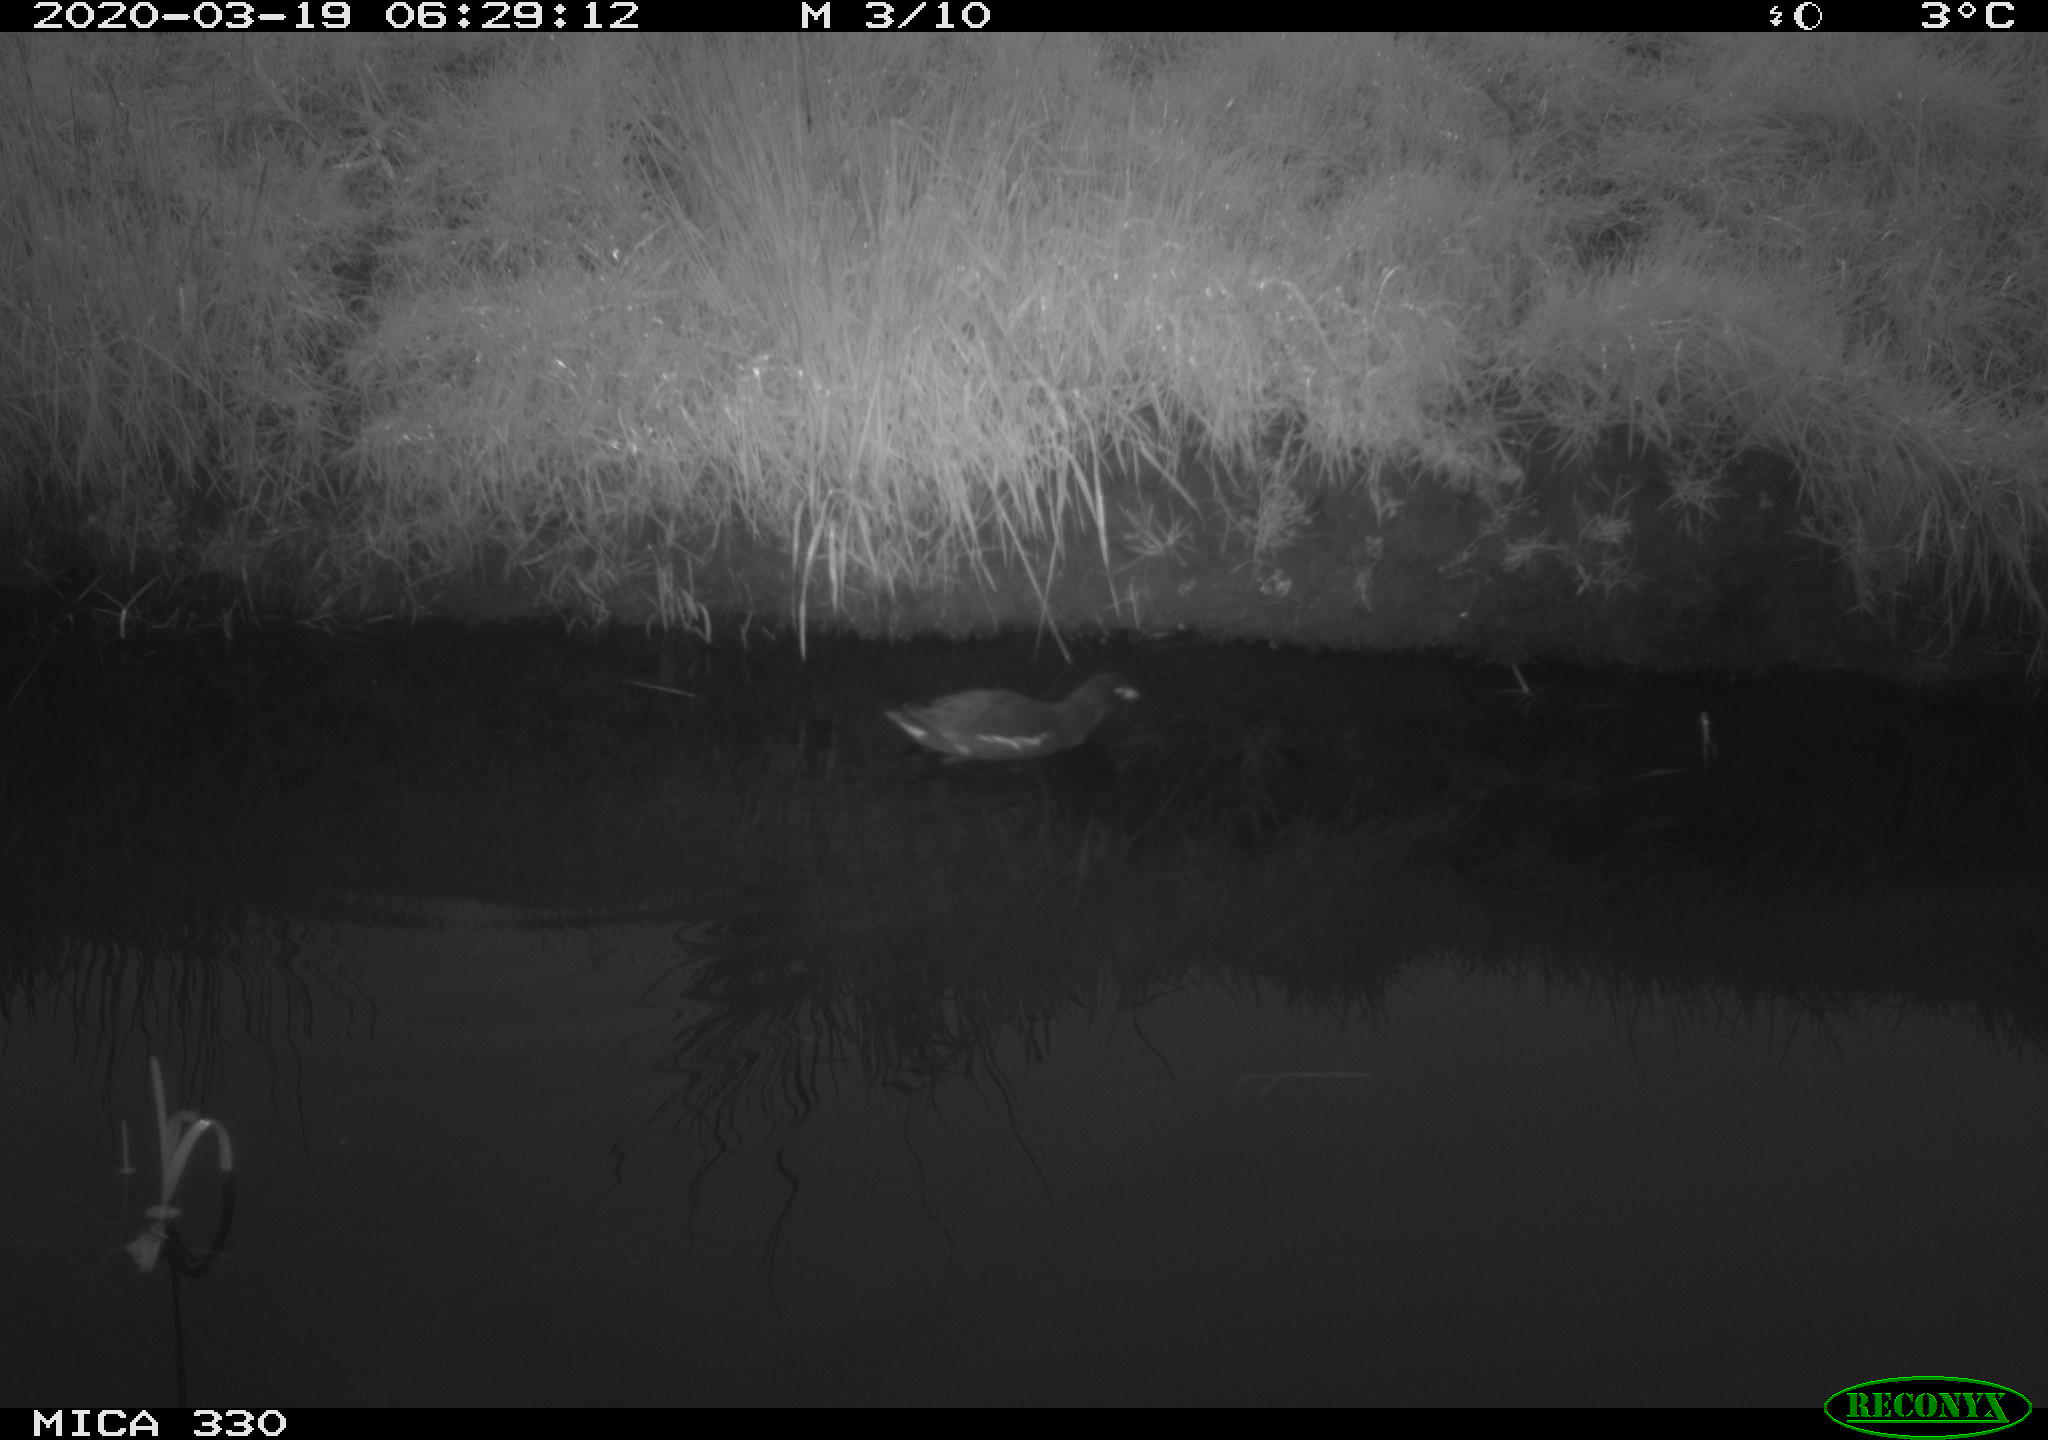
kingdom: Animalia
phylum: Chordata
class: Aves
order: Gruiformes
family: Rallidae
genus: Gallinula
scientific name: Gallinula chloropus
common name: Common moorhen
